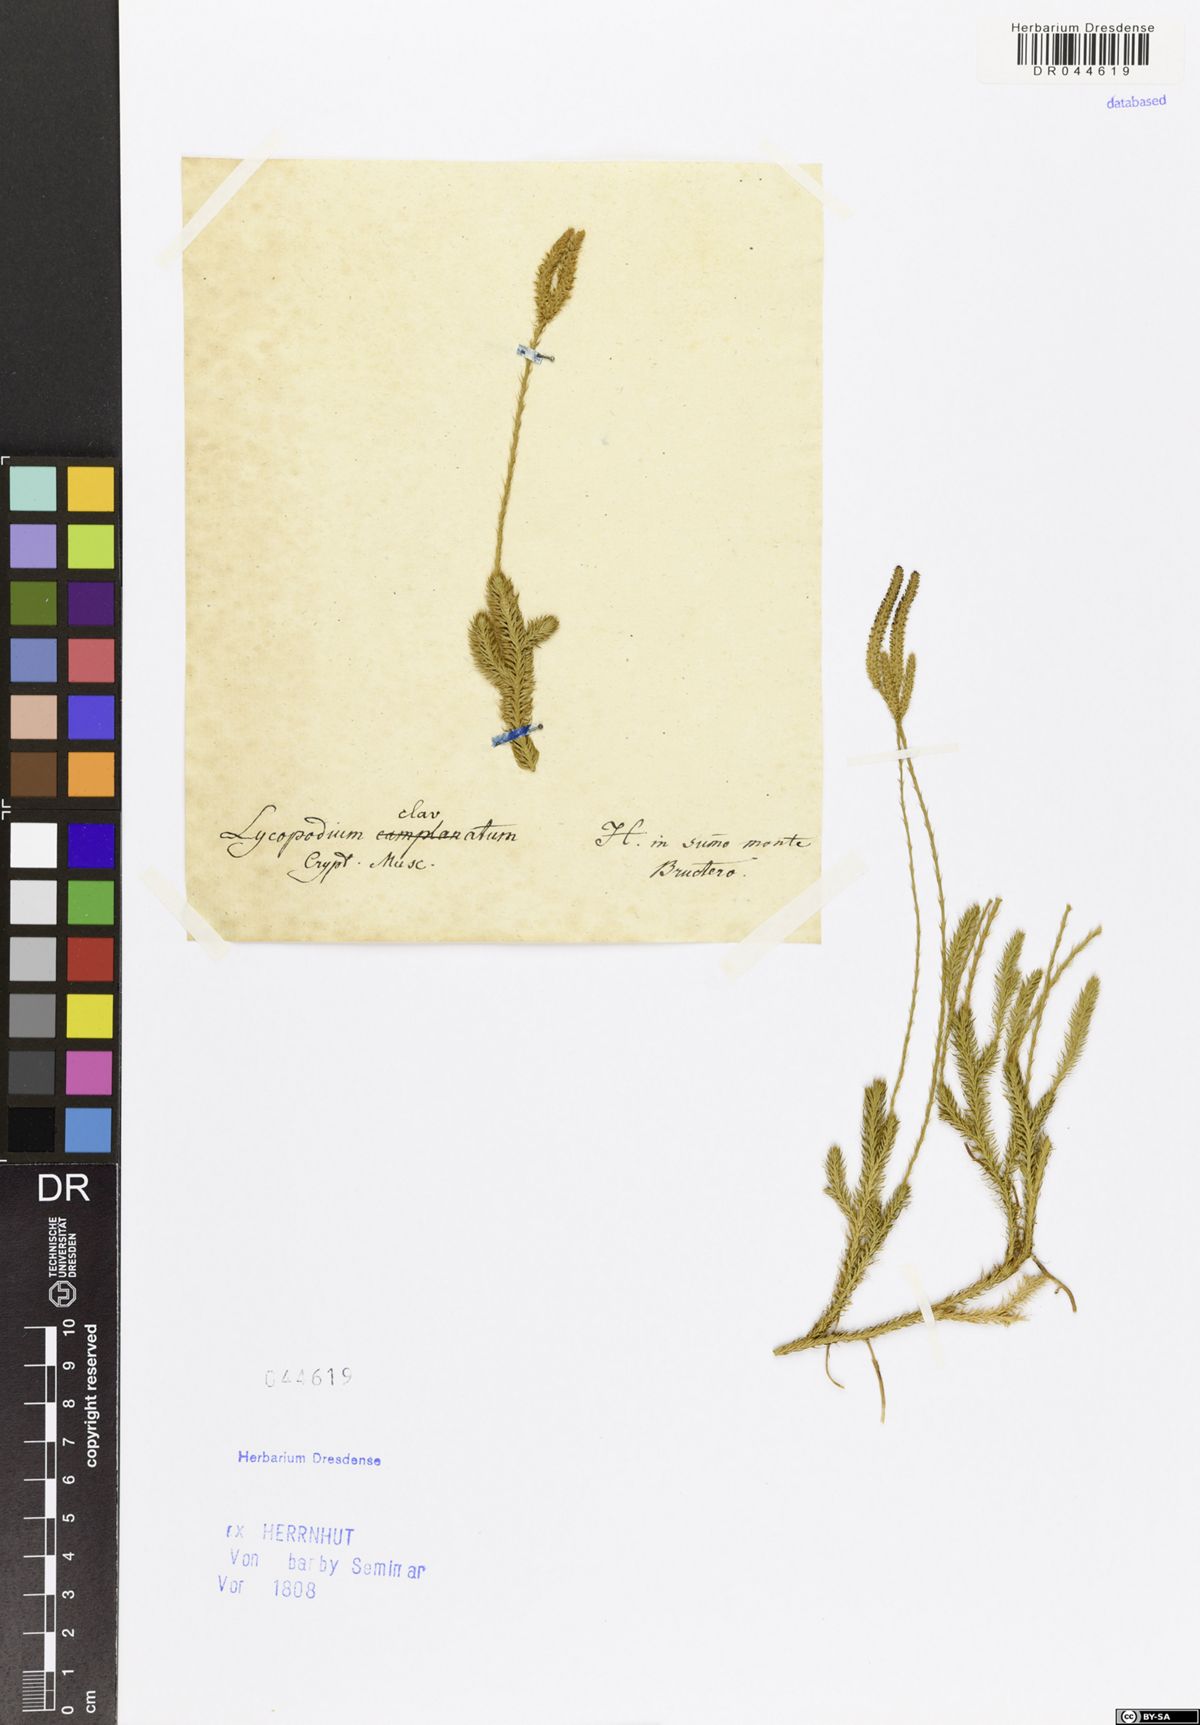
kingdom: Plantae
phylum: Tracheophyta
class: Lycopodiopsida
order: Lycopodiales
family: Lycopodiaceae
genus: Lycopodium
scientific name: Lycopodium clavatum
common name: Stag's-horn clubmoss
